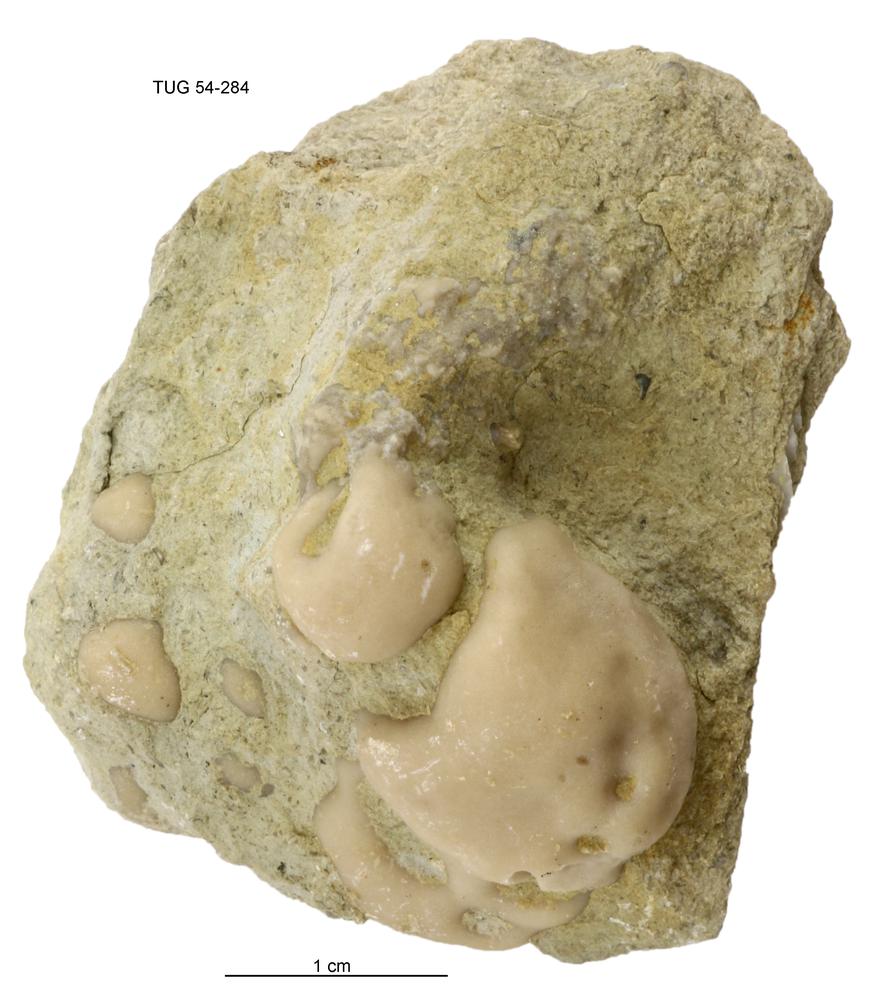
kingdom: Animalia
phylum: Porifera
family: Chaetetidae
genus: Solenopora
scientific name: Solenopora
